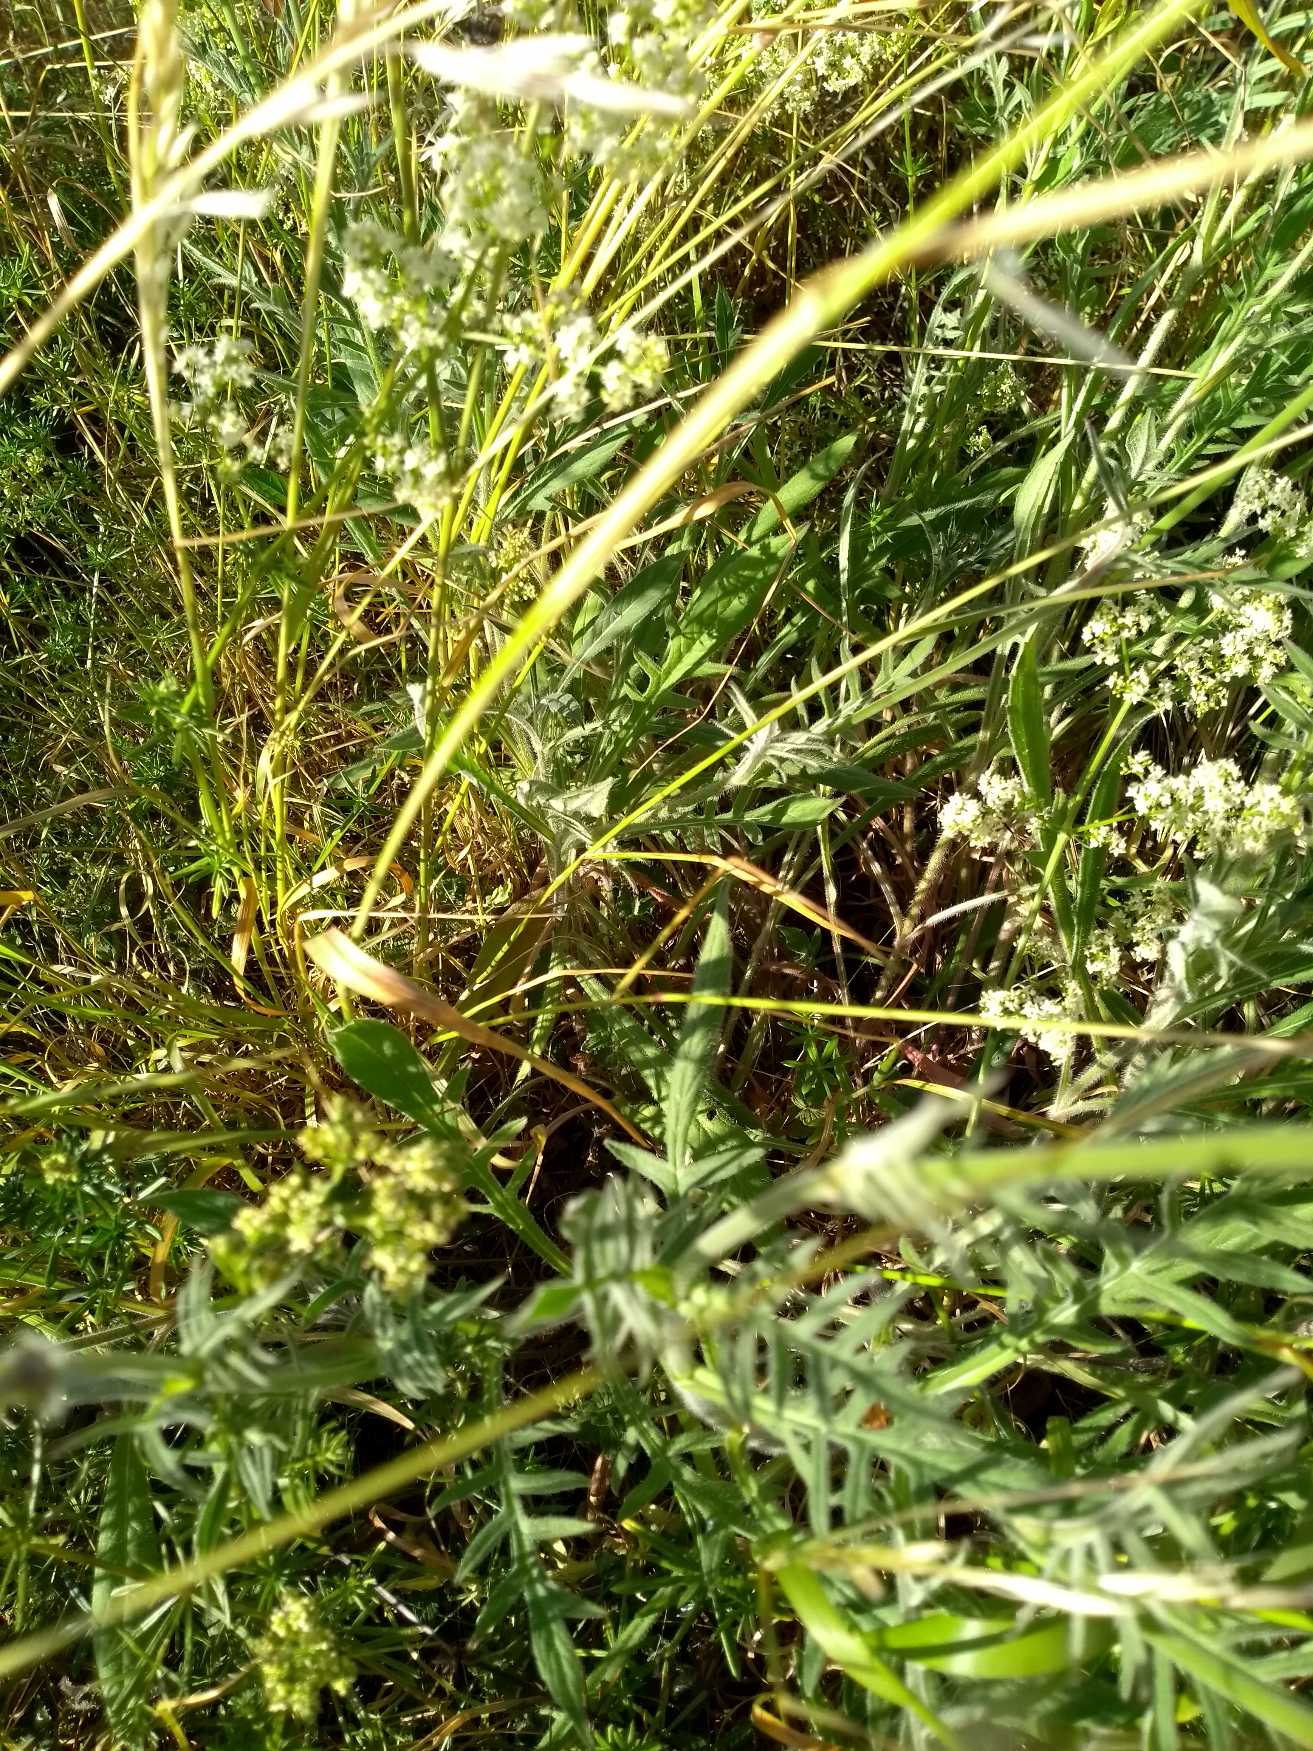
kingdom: Plantae
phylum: Tracheophyta
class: Magnoliopsida
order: Dipsacales
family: Caprifoliaceae
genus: Knautia
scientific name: Knautia arvensis
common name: Blåhat
